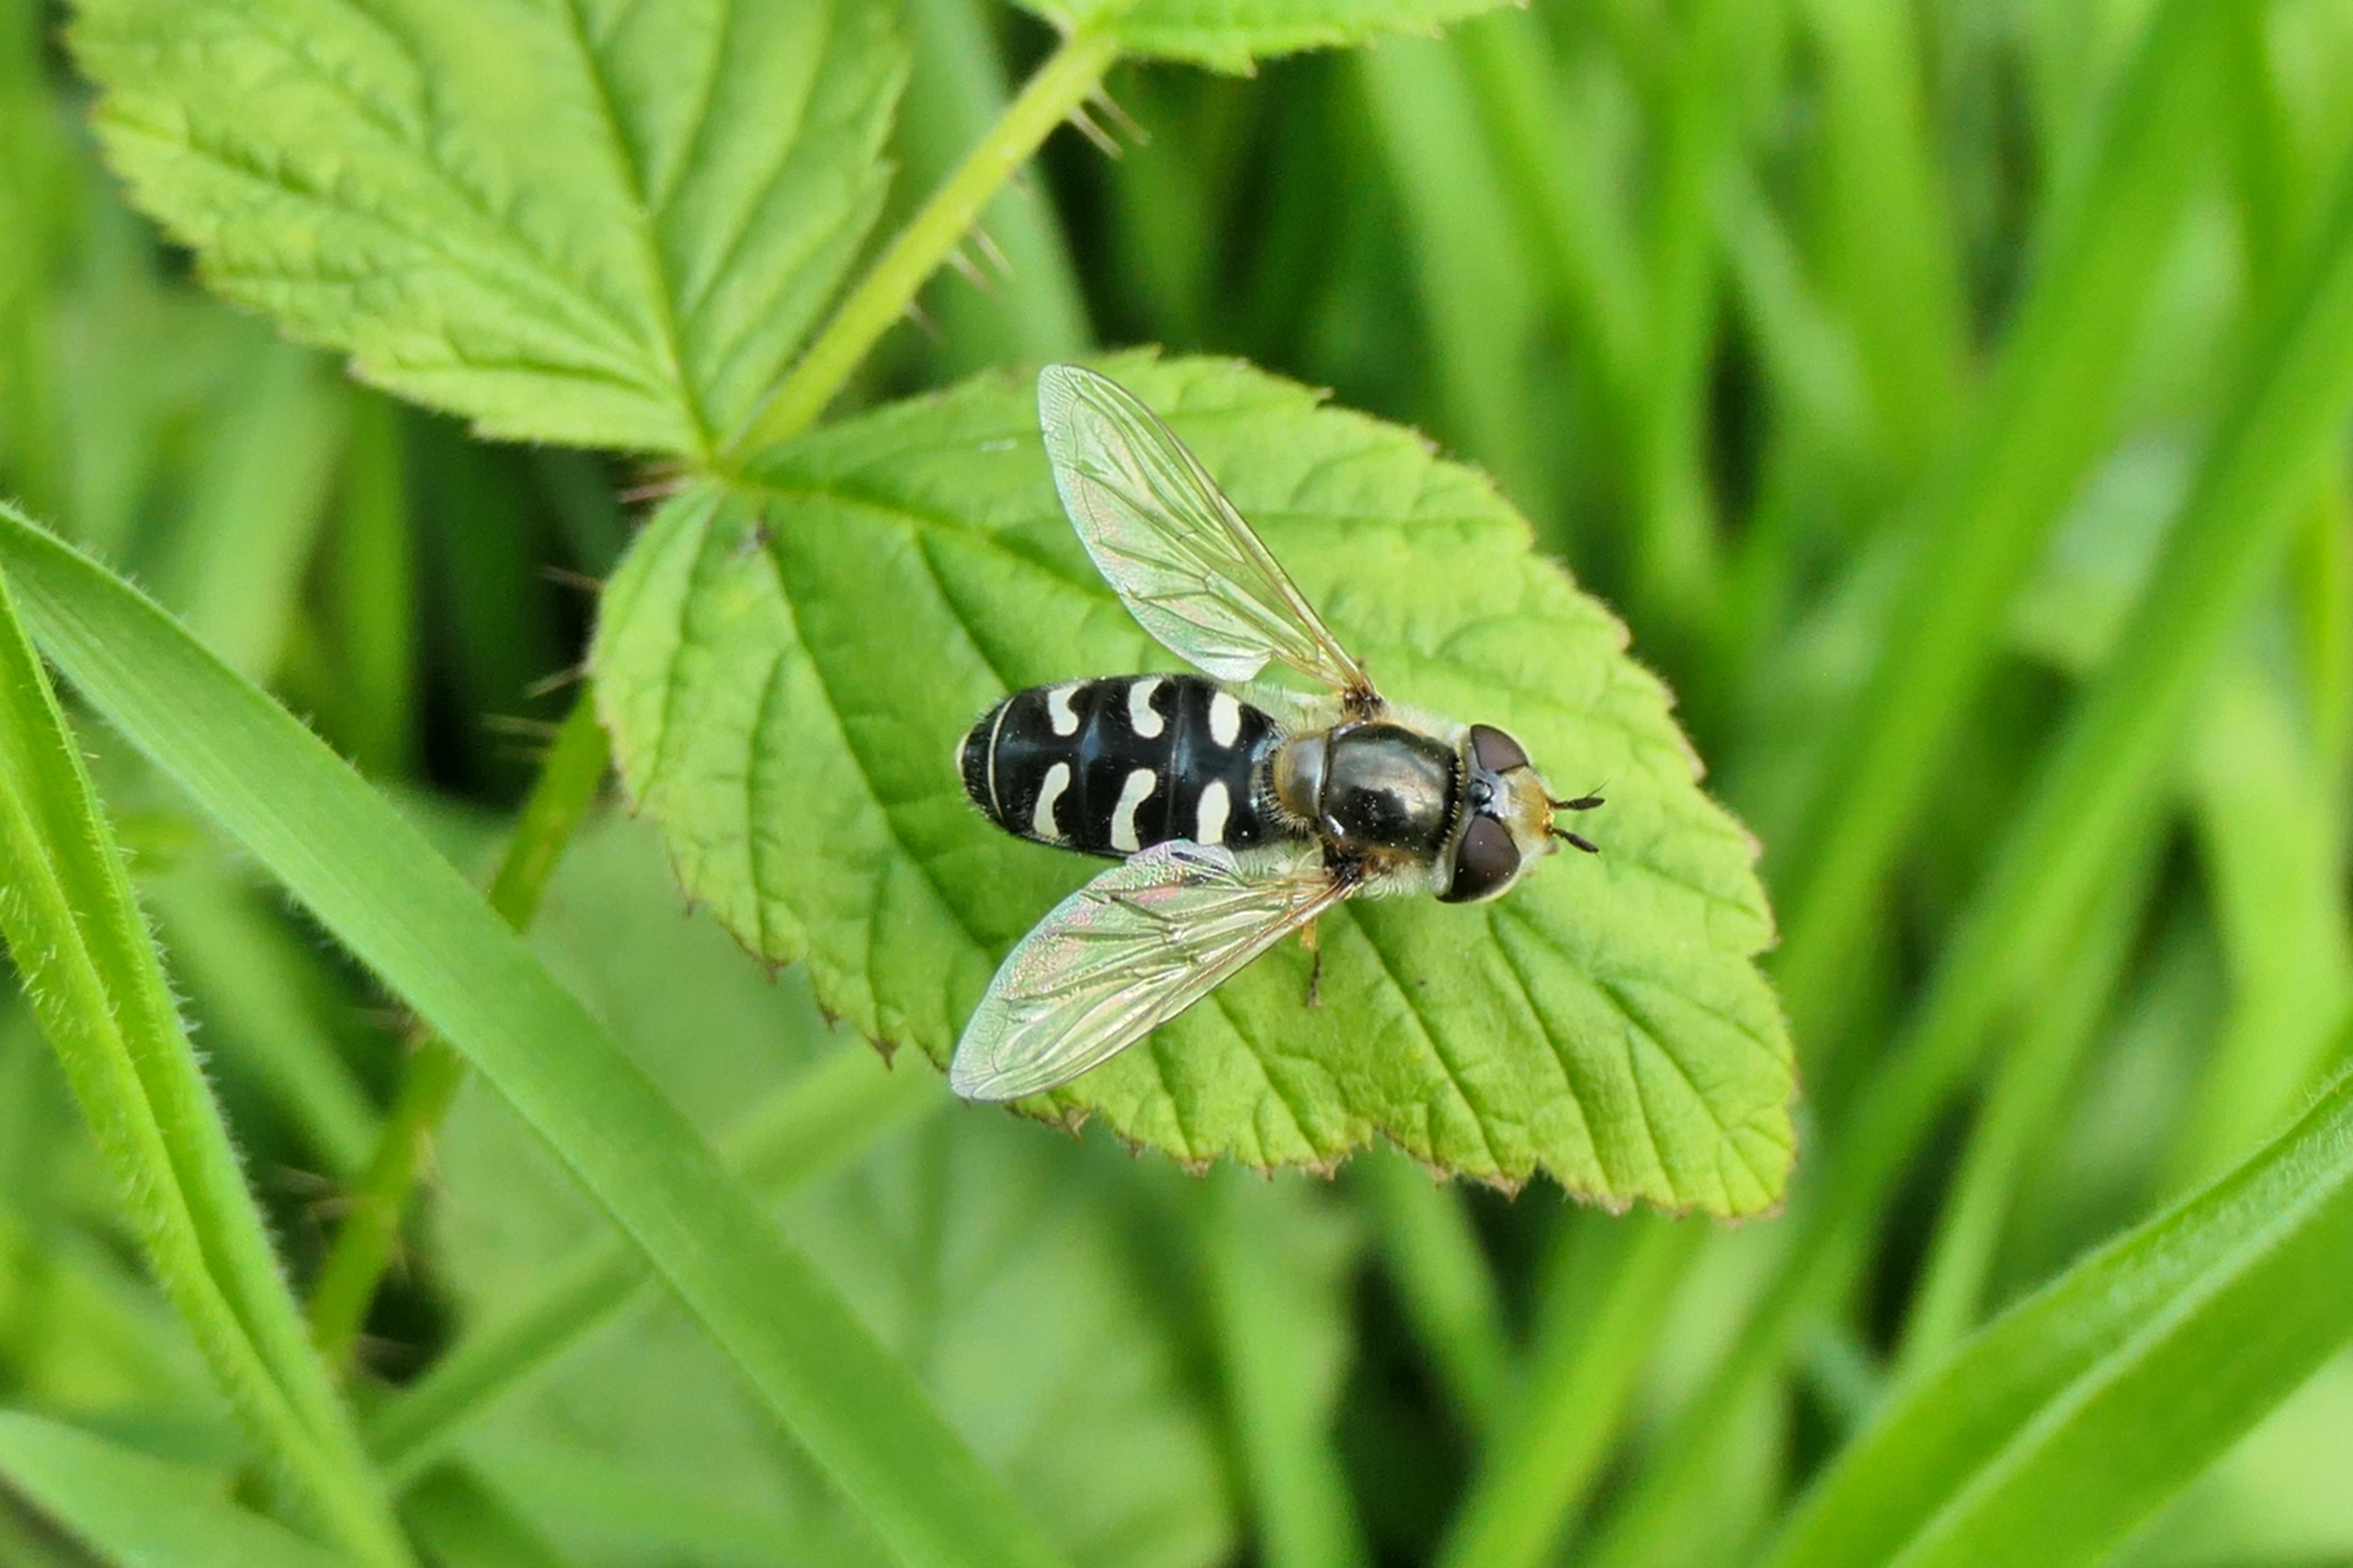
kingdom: Animalia
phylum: Arthropoda
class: Insecta
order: Diptera
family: Syrphidae
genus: Scaeva
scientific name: Scaeva pyrastri
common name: Hvidplettet agersvirreflue
